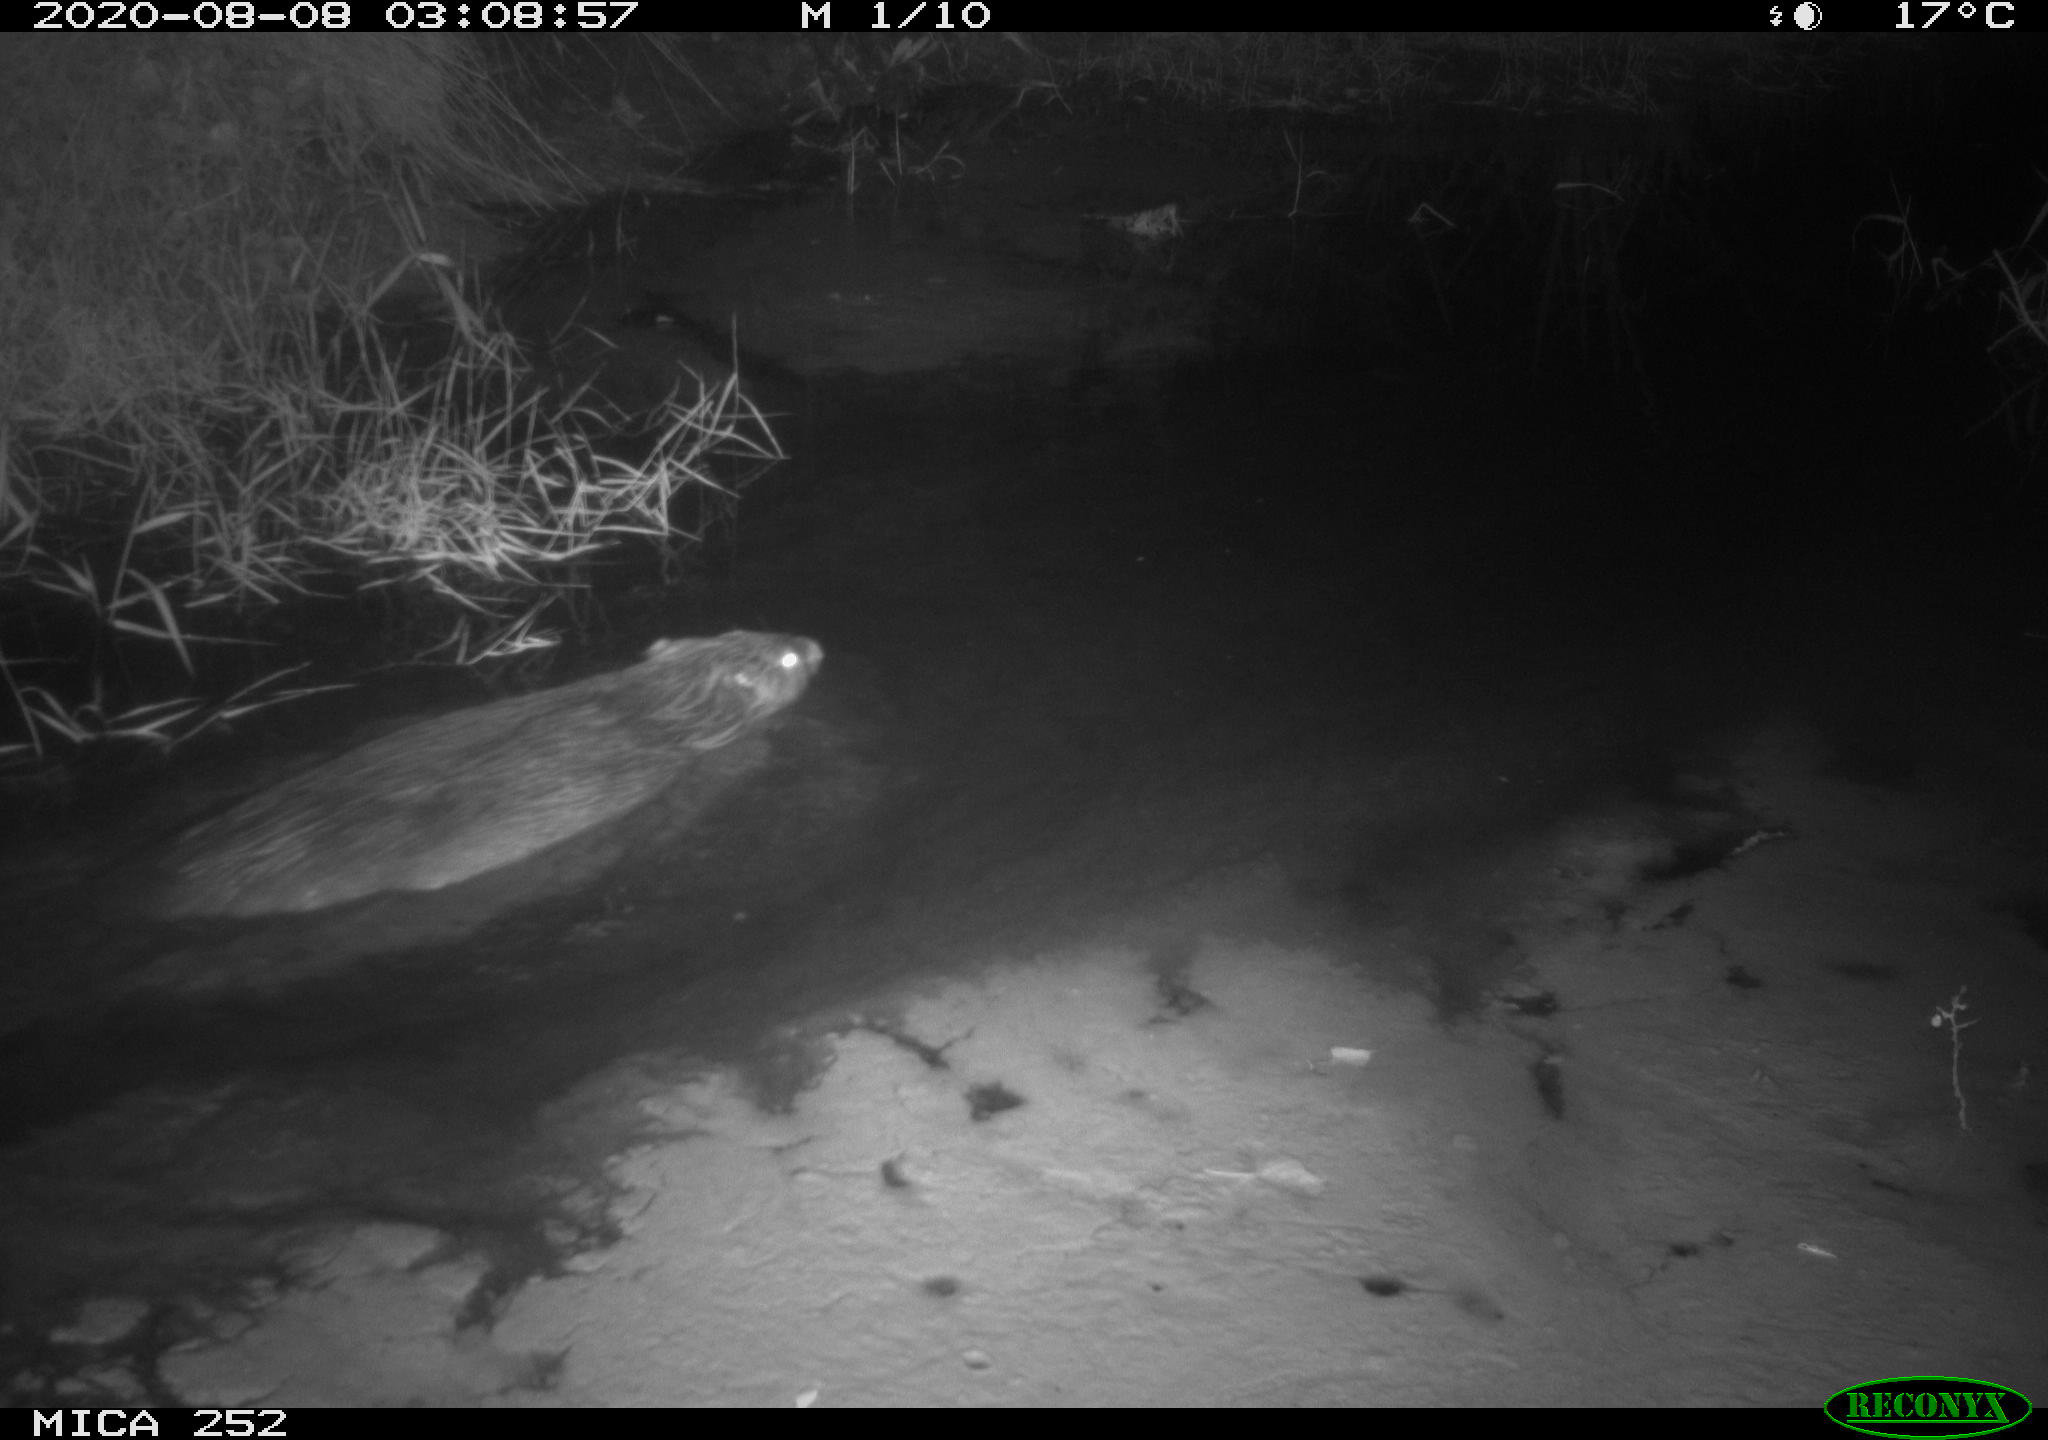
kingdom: Animalia
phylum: Chordata
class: Mammalia
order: Rodentia
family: Castoridae
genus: Castor
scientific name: Castor fiber
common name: Eurasian beaver
